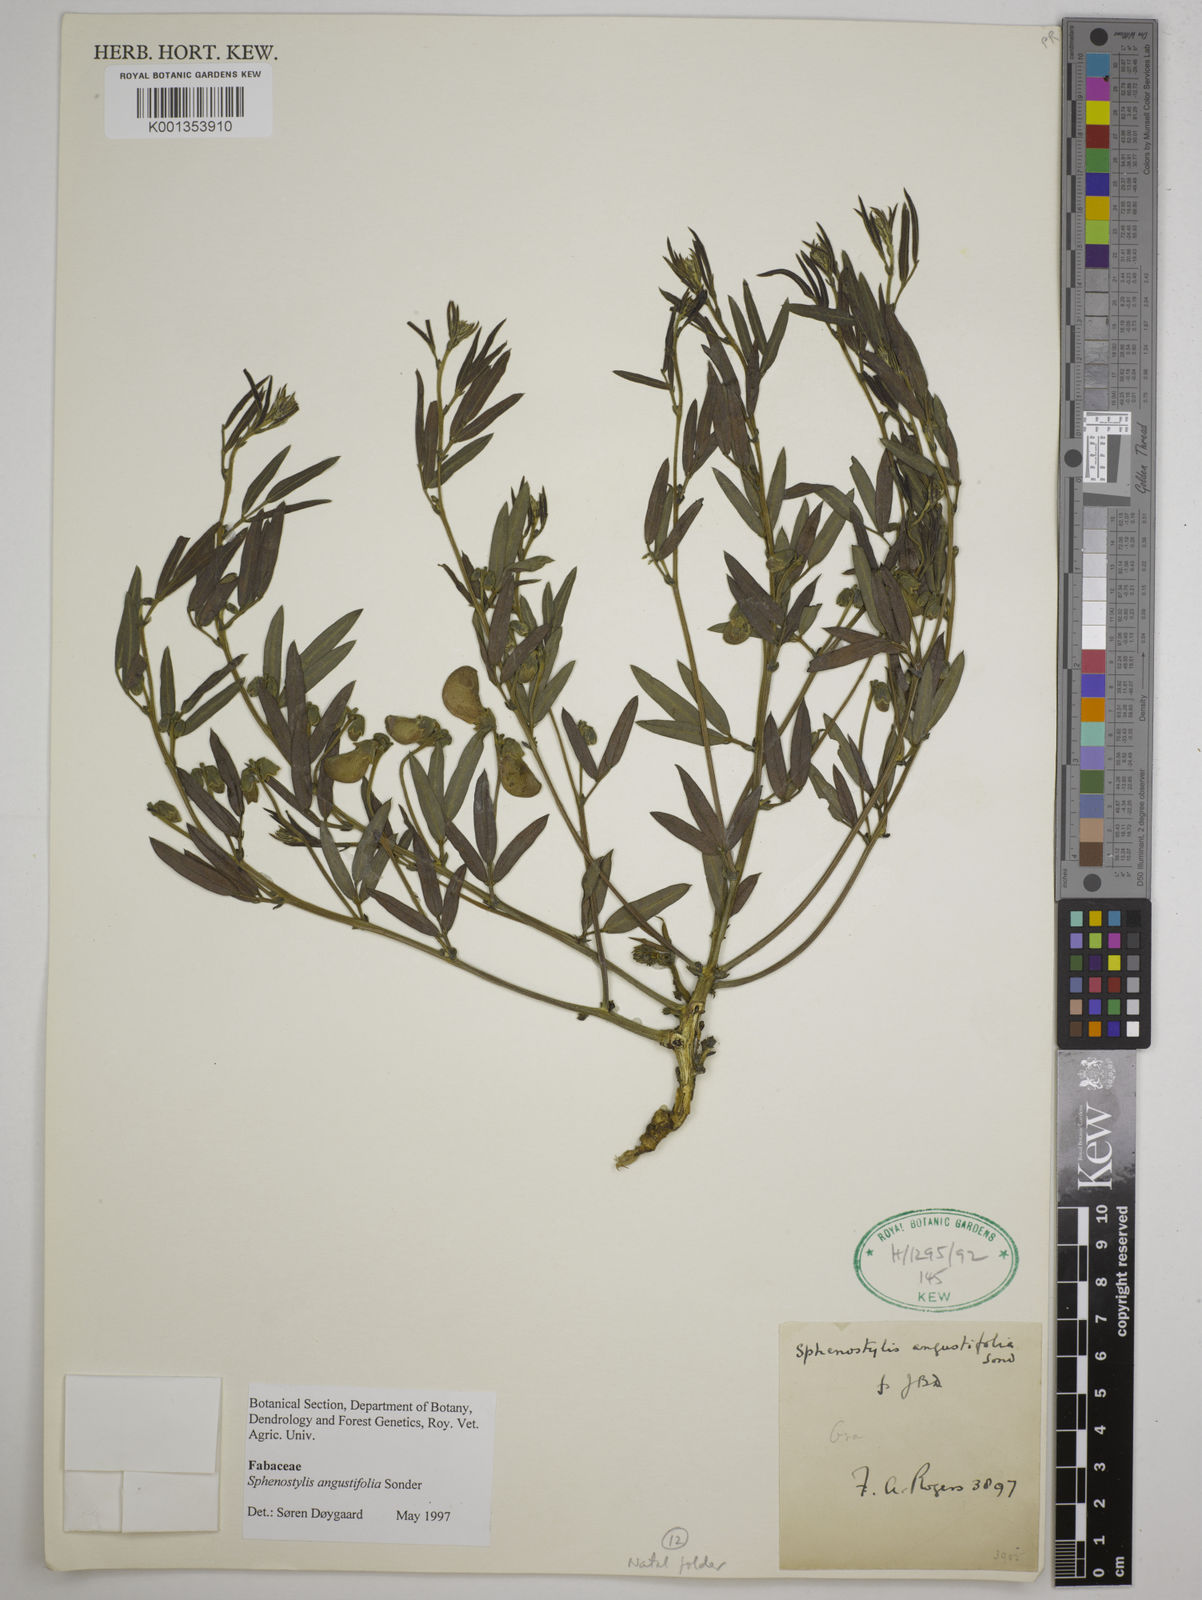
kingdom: Plantae
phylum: Tracheophyta
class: Magnoliopsida
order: Fabales
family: Fabaceae
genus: Sphenostylis
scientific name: Sphenostylis angustifolia
